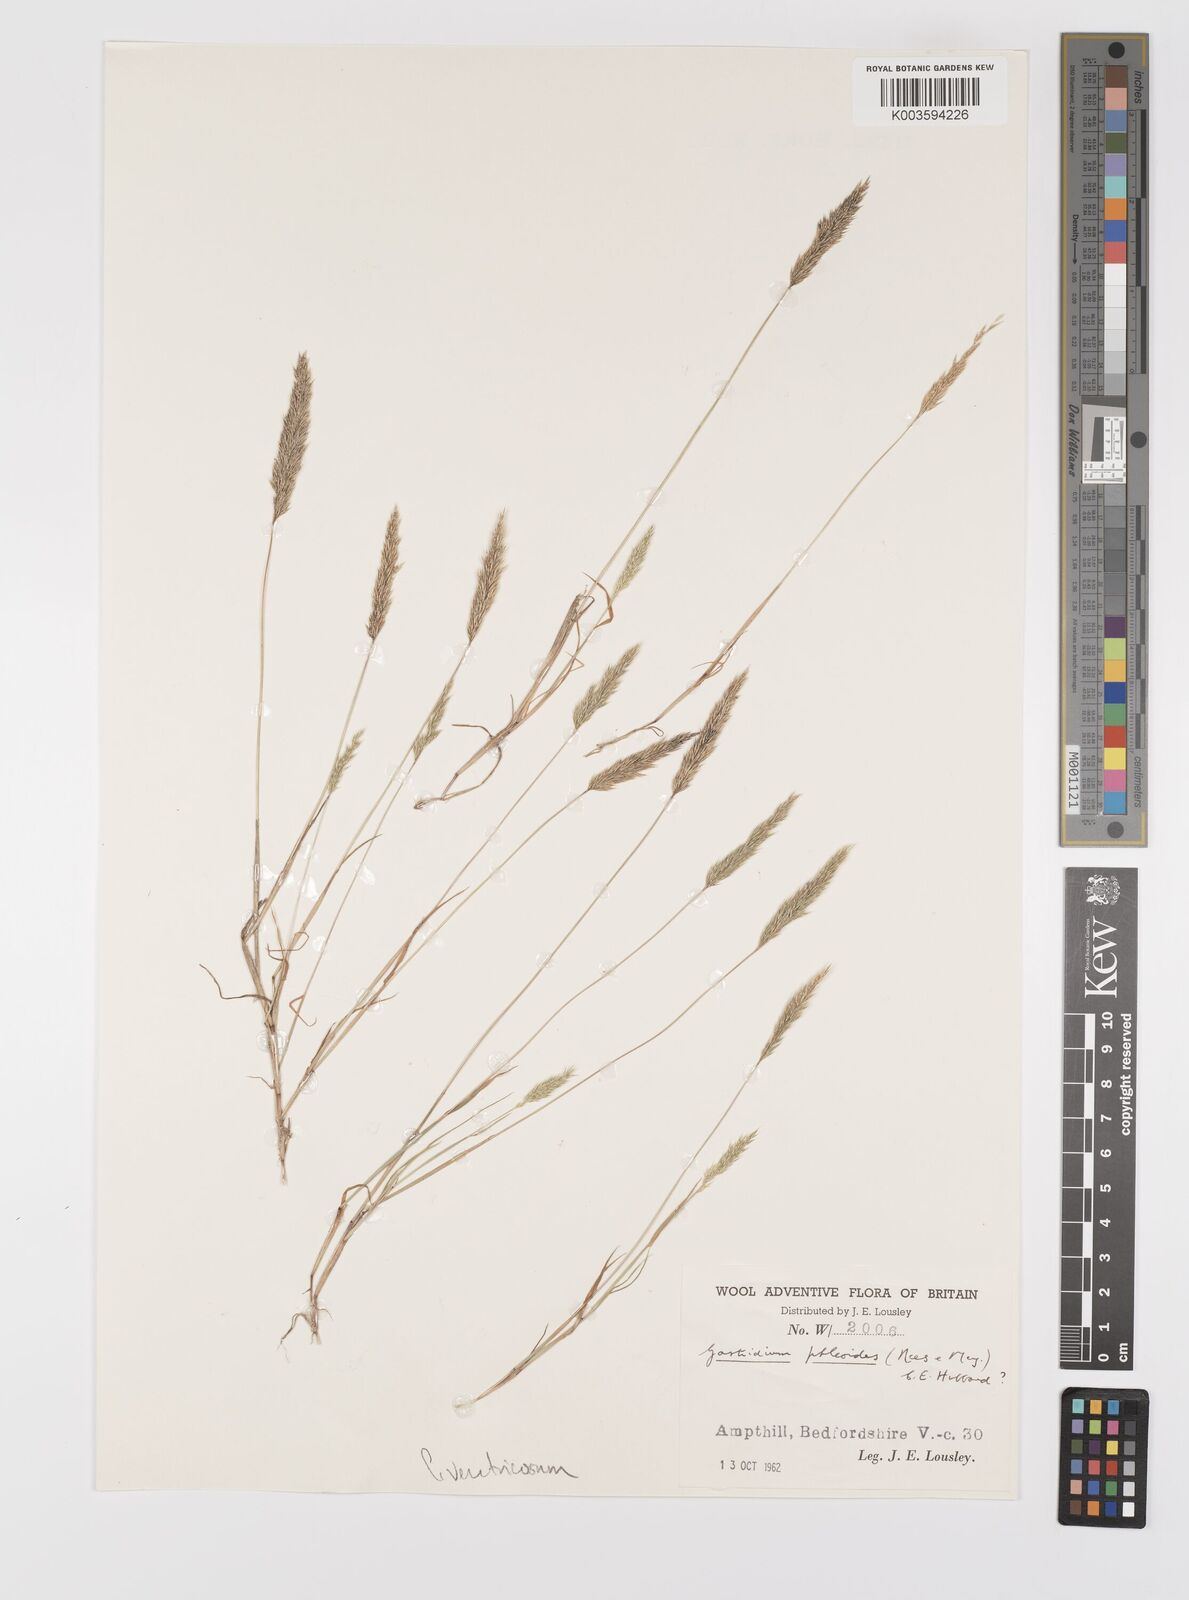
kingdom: Plantae
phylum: Tracheophyta
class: Liliopsida
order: Poales
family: Poaceae
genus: Gastridium
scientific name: Gastridium ventricosum
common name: Nit-grass
